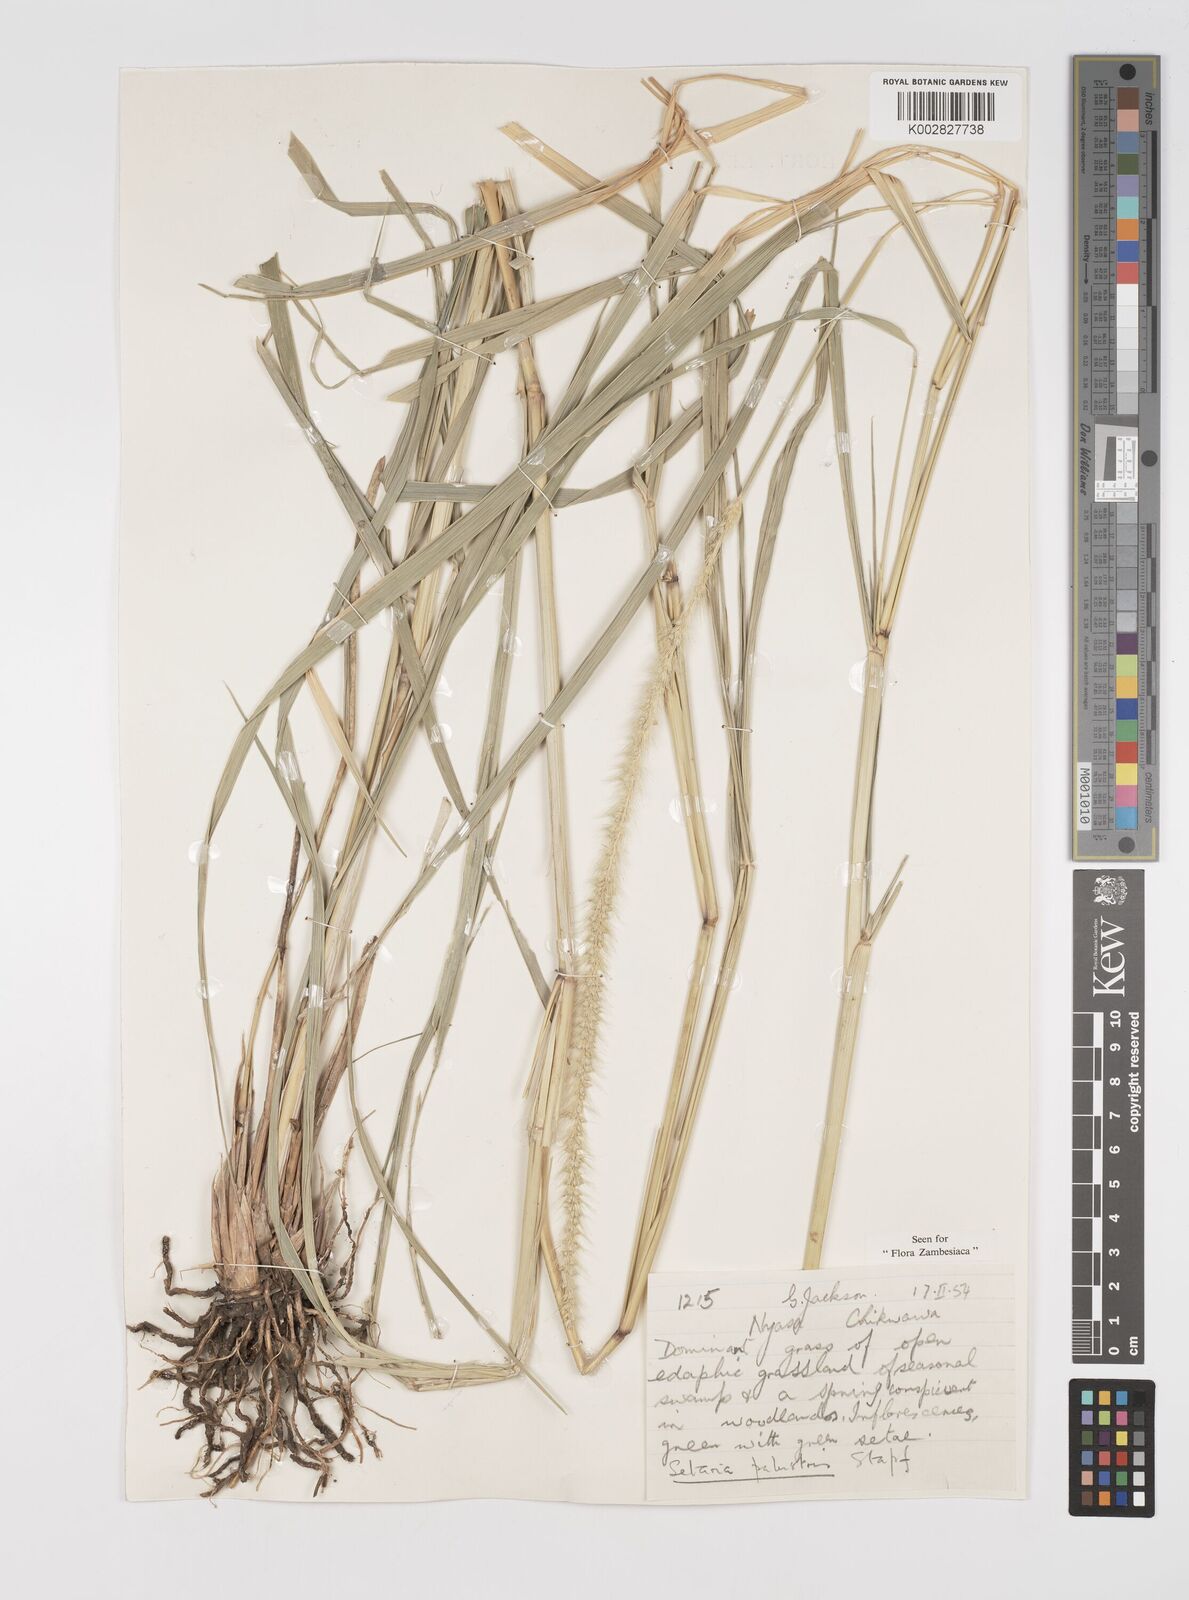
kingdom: Plantae
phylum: Tracheophyta
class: Liliopsida
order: Poales
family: Poaceae
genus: Setaria
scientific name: Setaria incrassata
